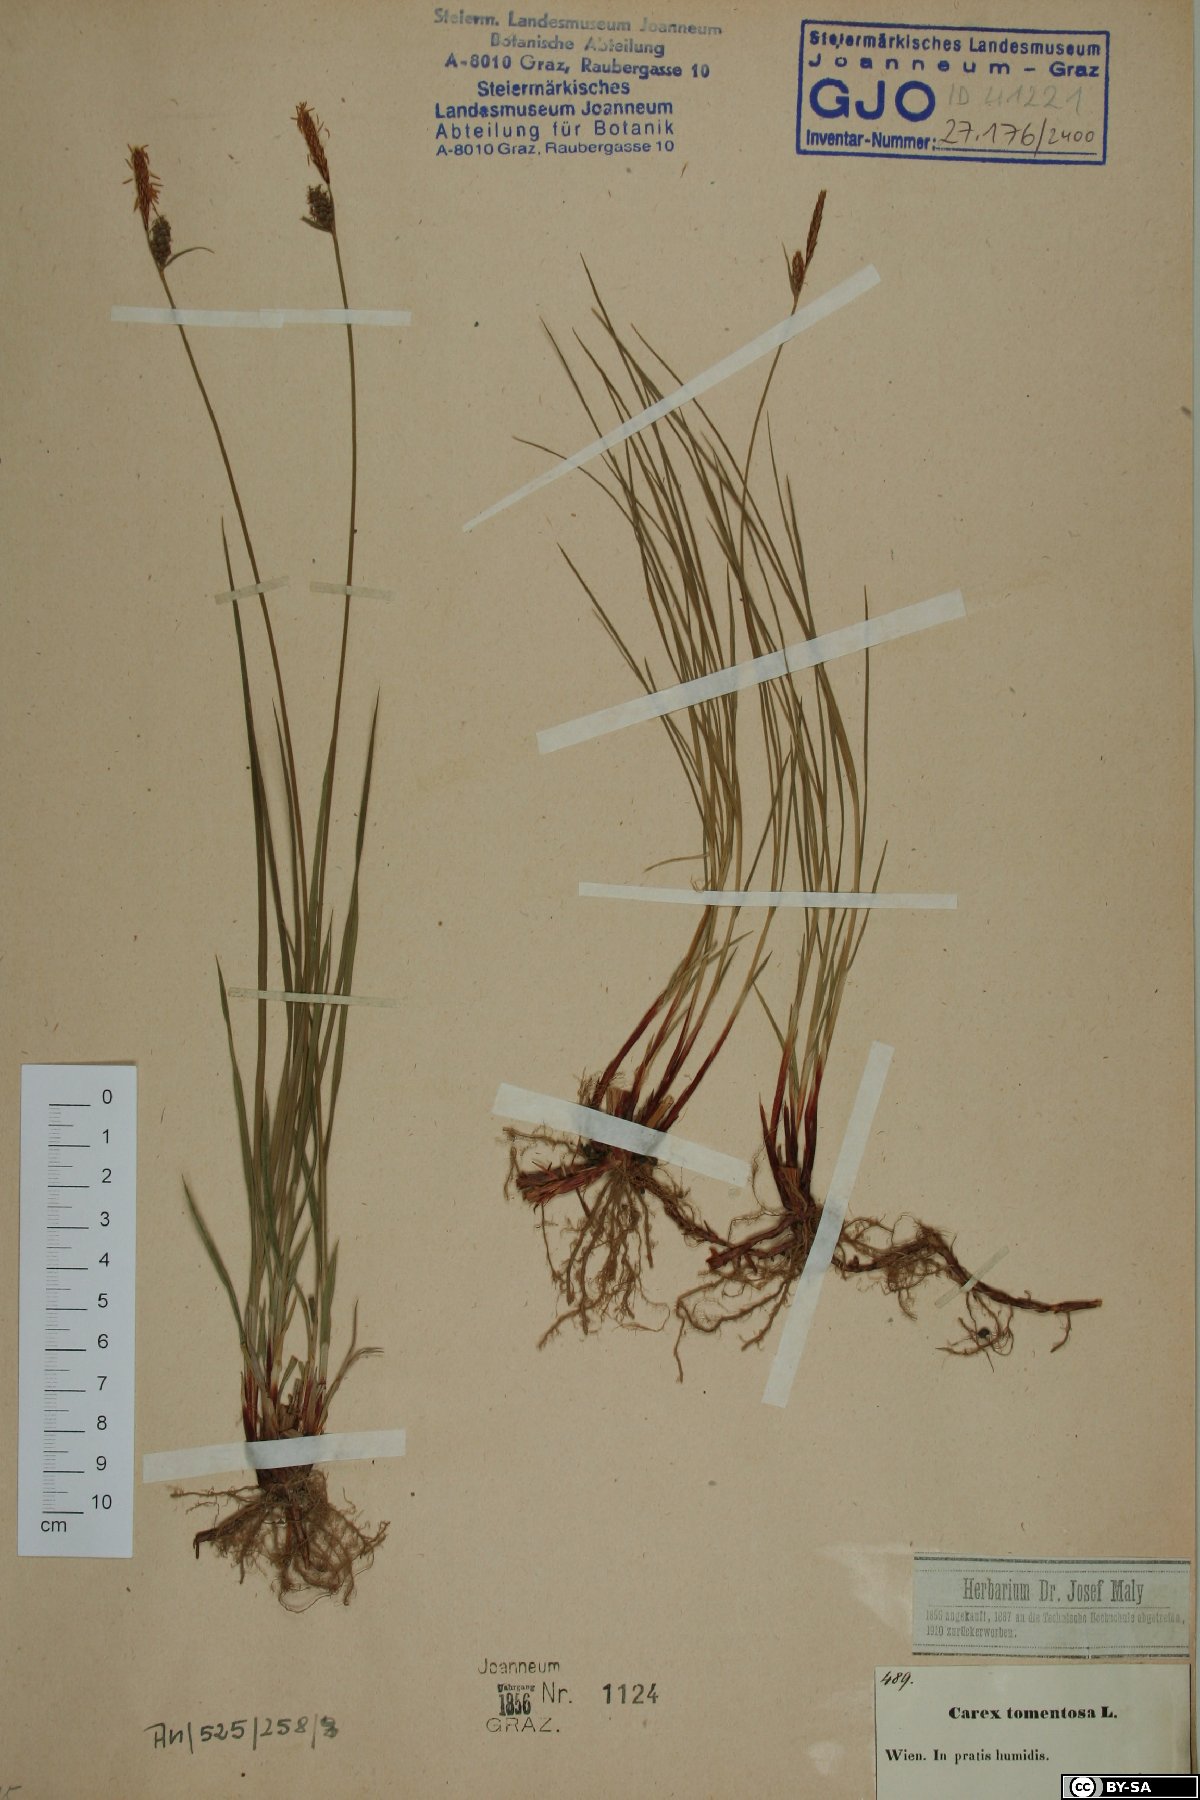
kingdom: Plantae
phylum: Tracheophyta
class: Liliopsida
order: Poales
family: Cyperaceae
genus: Carex
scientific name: Carex tomentosa
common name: Downy-fruited sedge
